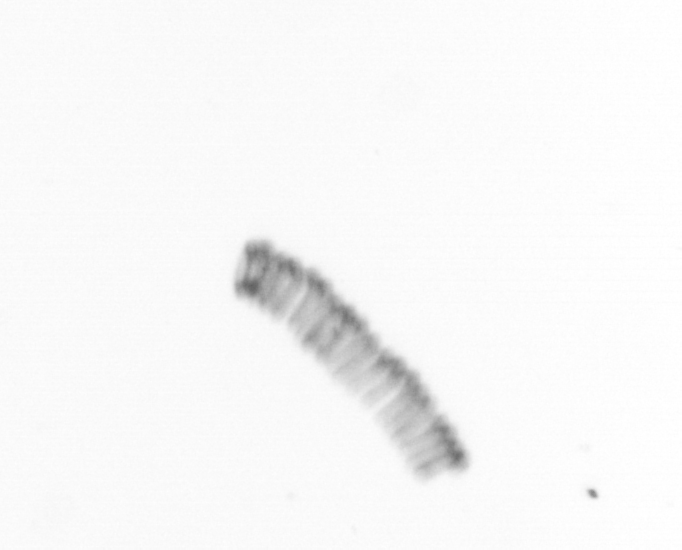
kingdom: Chromista
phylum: Ochrophyta
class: Bacillariophyceae
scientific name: Bacillariophyceae
